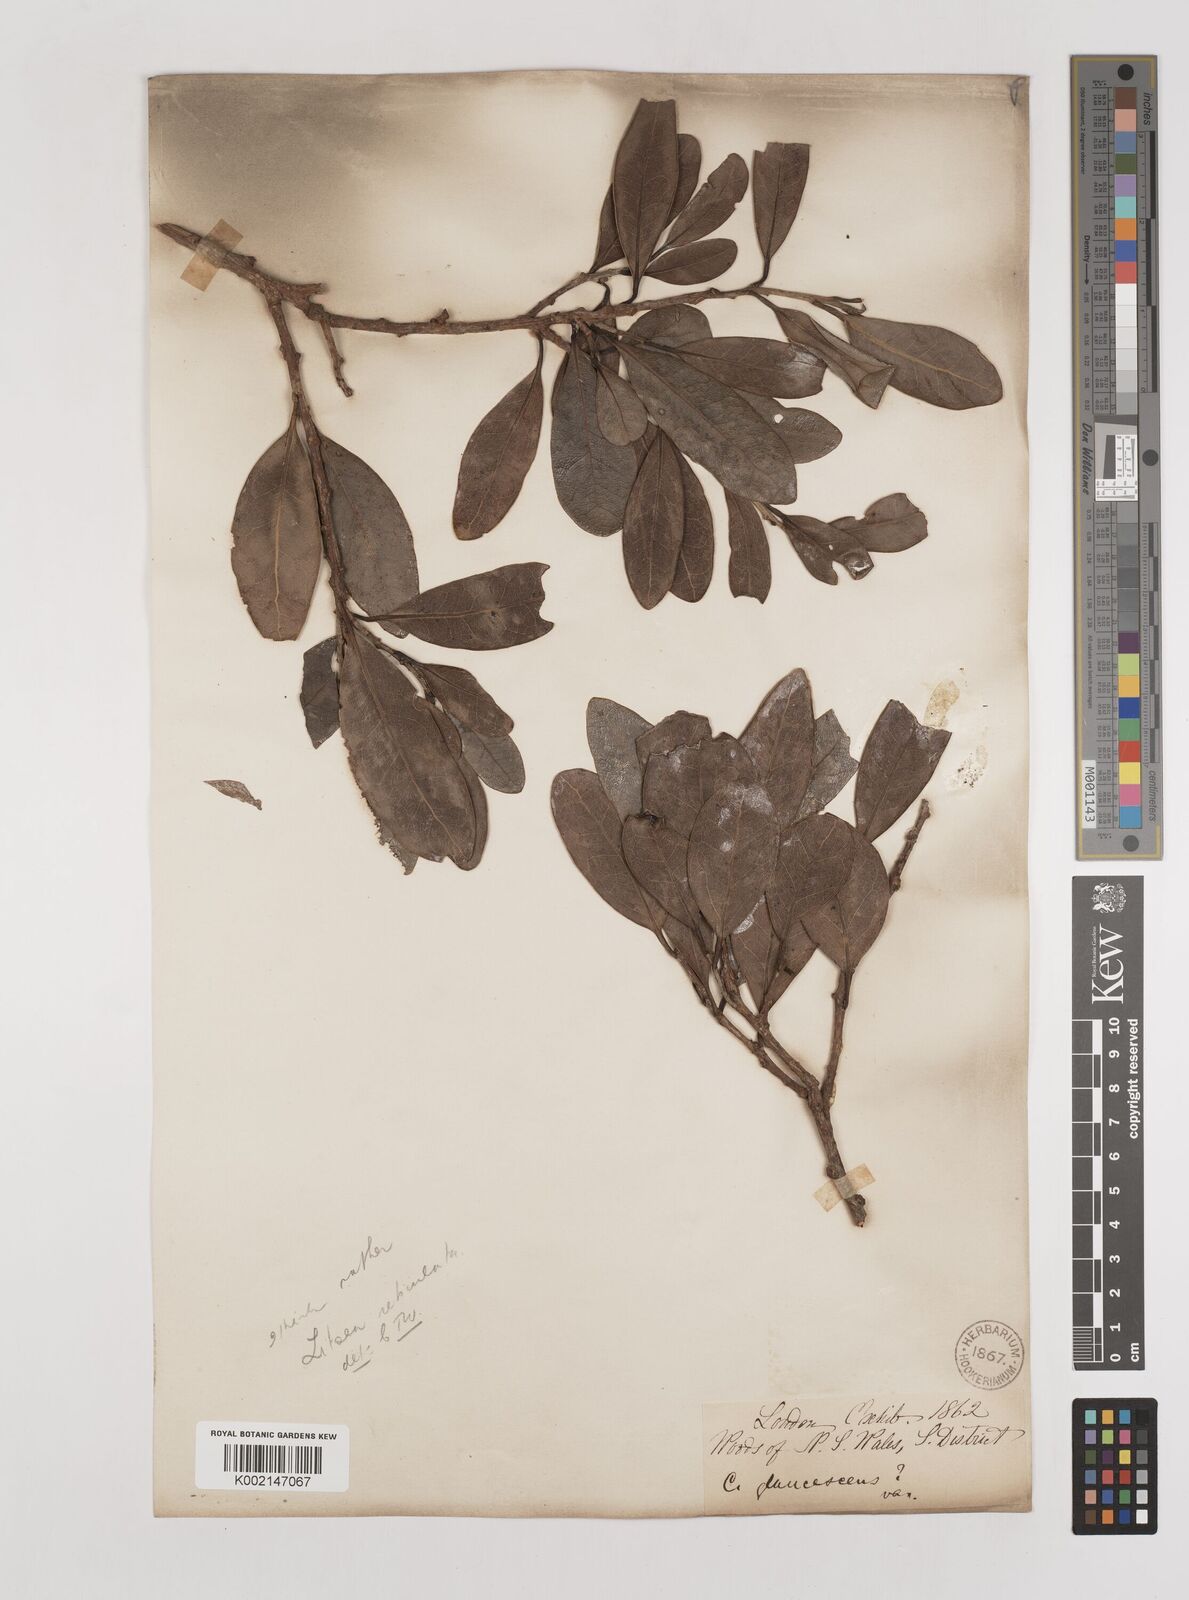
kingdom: Plantae
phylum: Tracheophyta
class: Magnoliopsida
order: Laurales
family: Lauraceae
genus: Litsea
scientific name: Litsea reticulata
